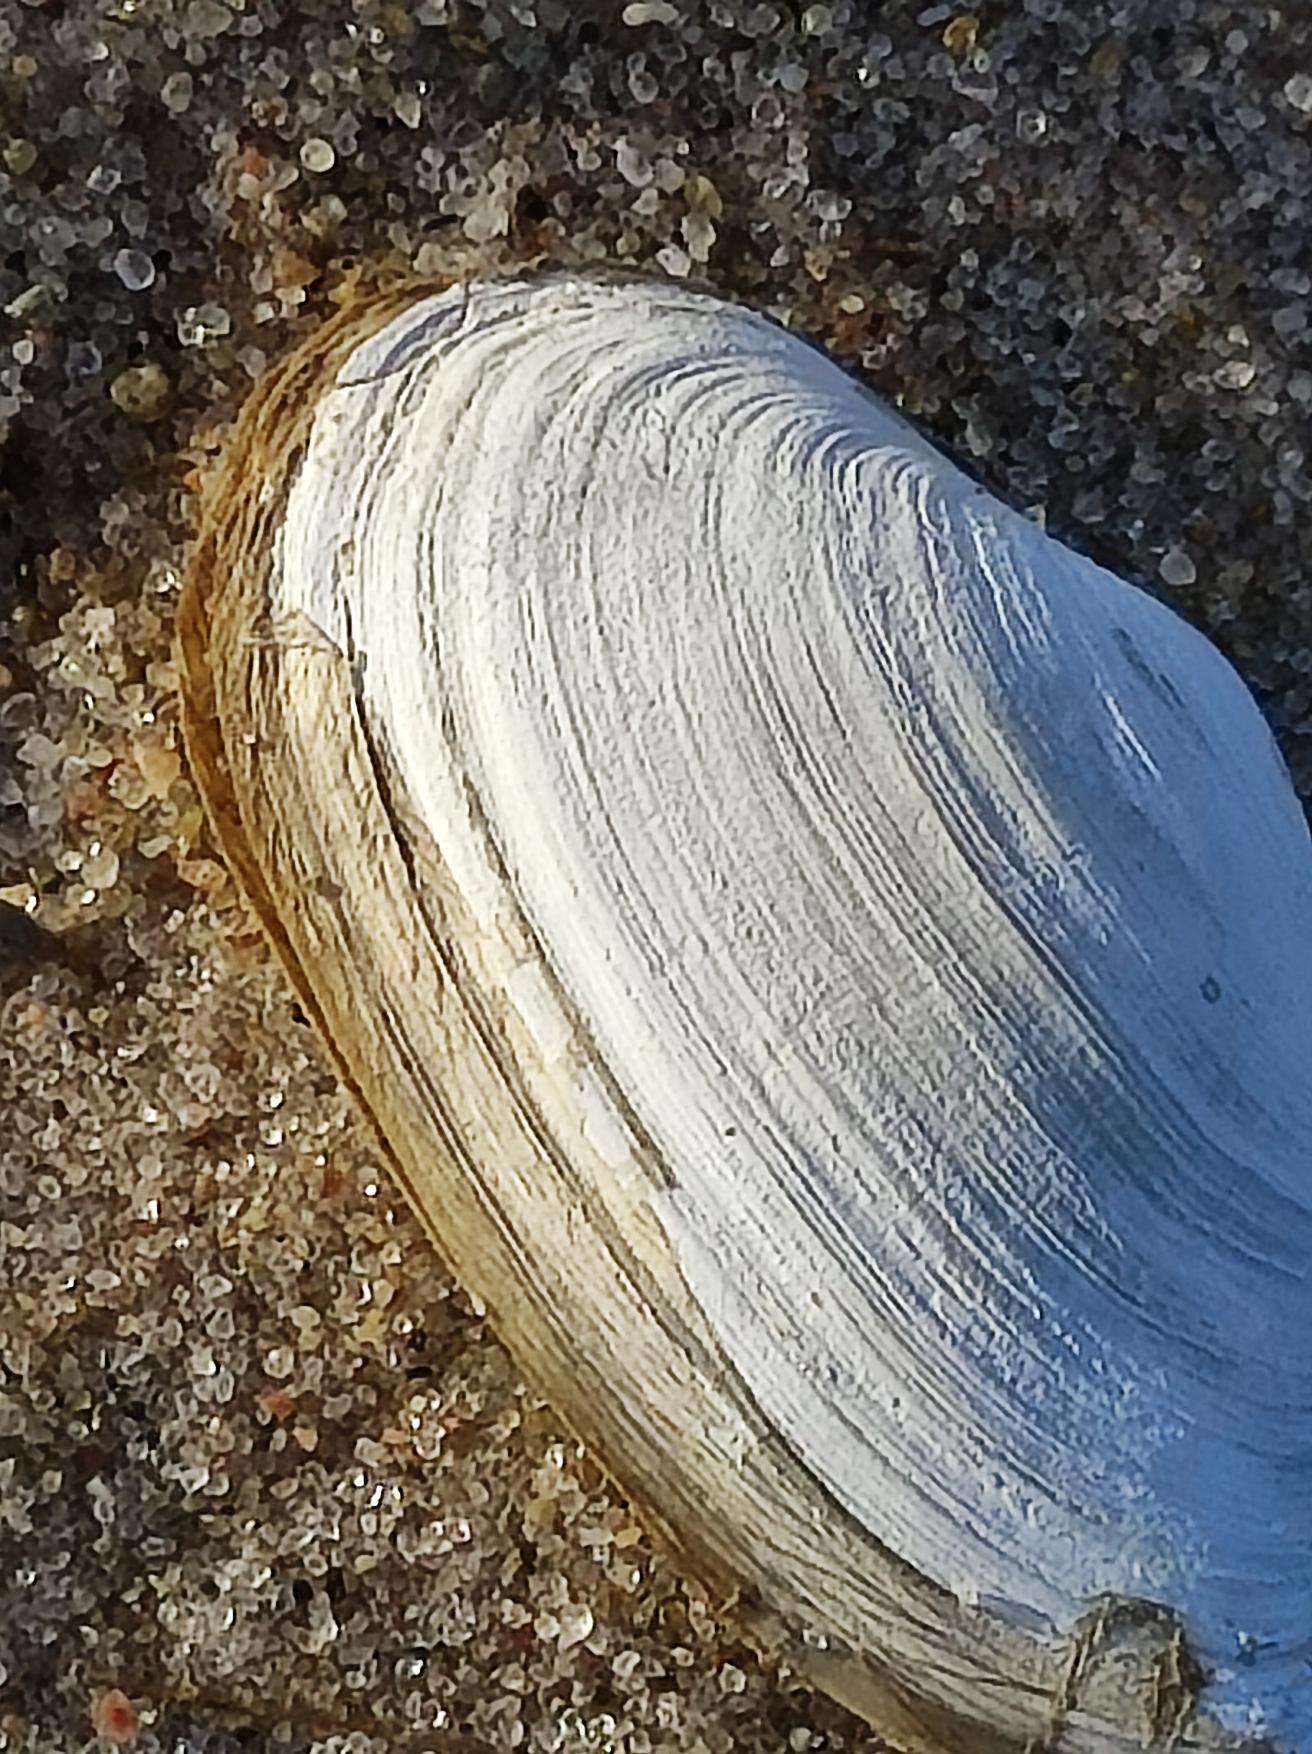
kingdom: Animalia
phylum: Mollusca
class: Bivalvia
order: Myida
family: Myidae
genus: Mya
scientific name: Mya arenaria
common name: Almindelig sandmusling
